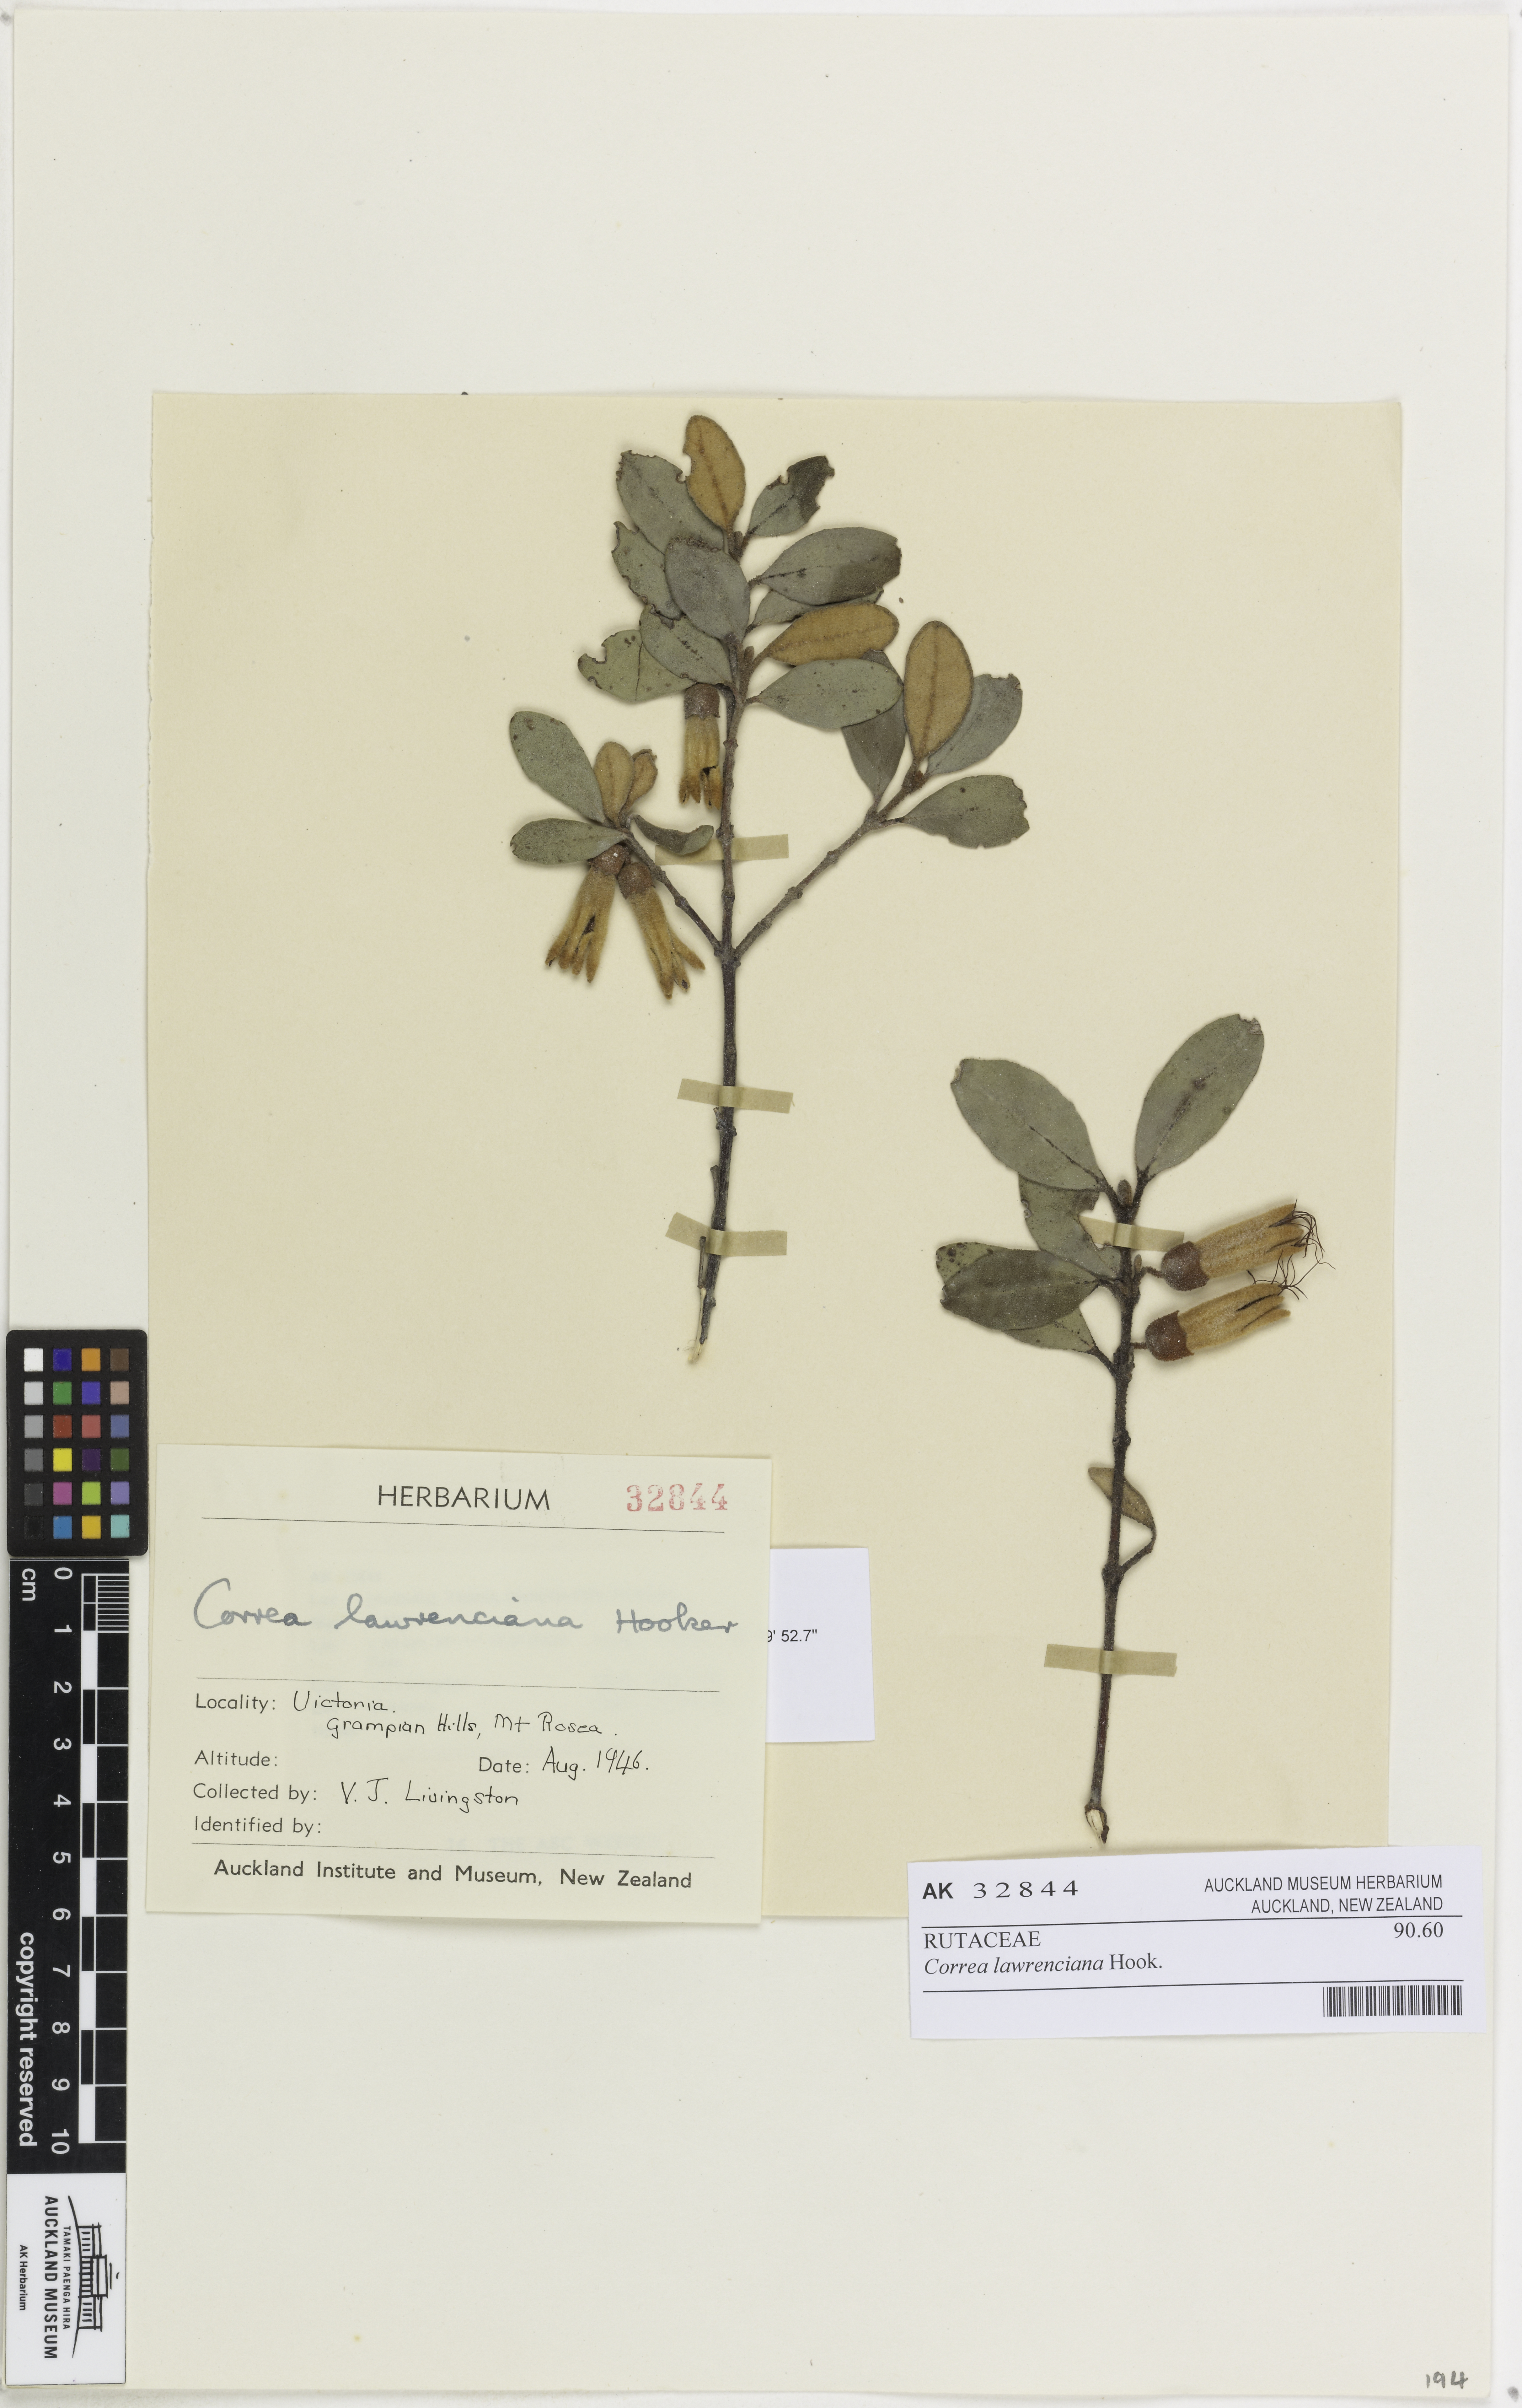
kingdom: Plantae
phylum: Tracheophyta
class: Magnoliopsida
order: Sapindales
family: Rutaceae
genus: Correa
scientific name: Correa lawrenciana
